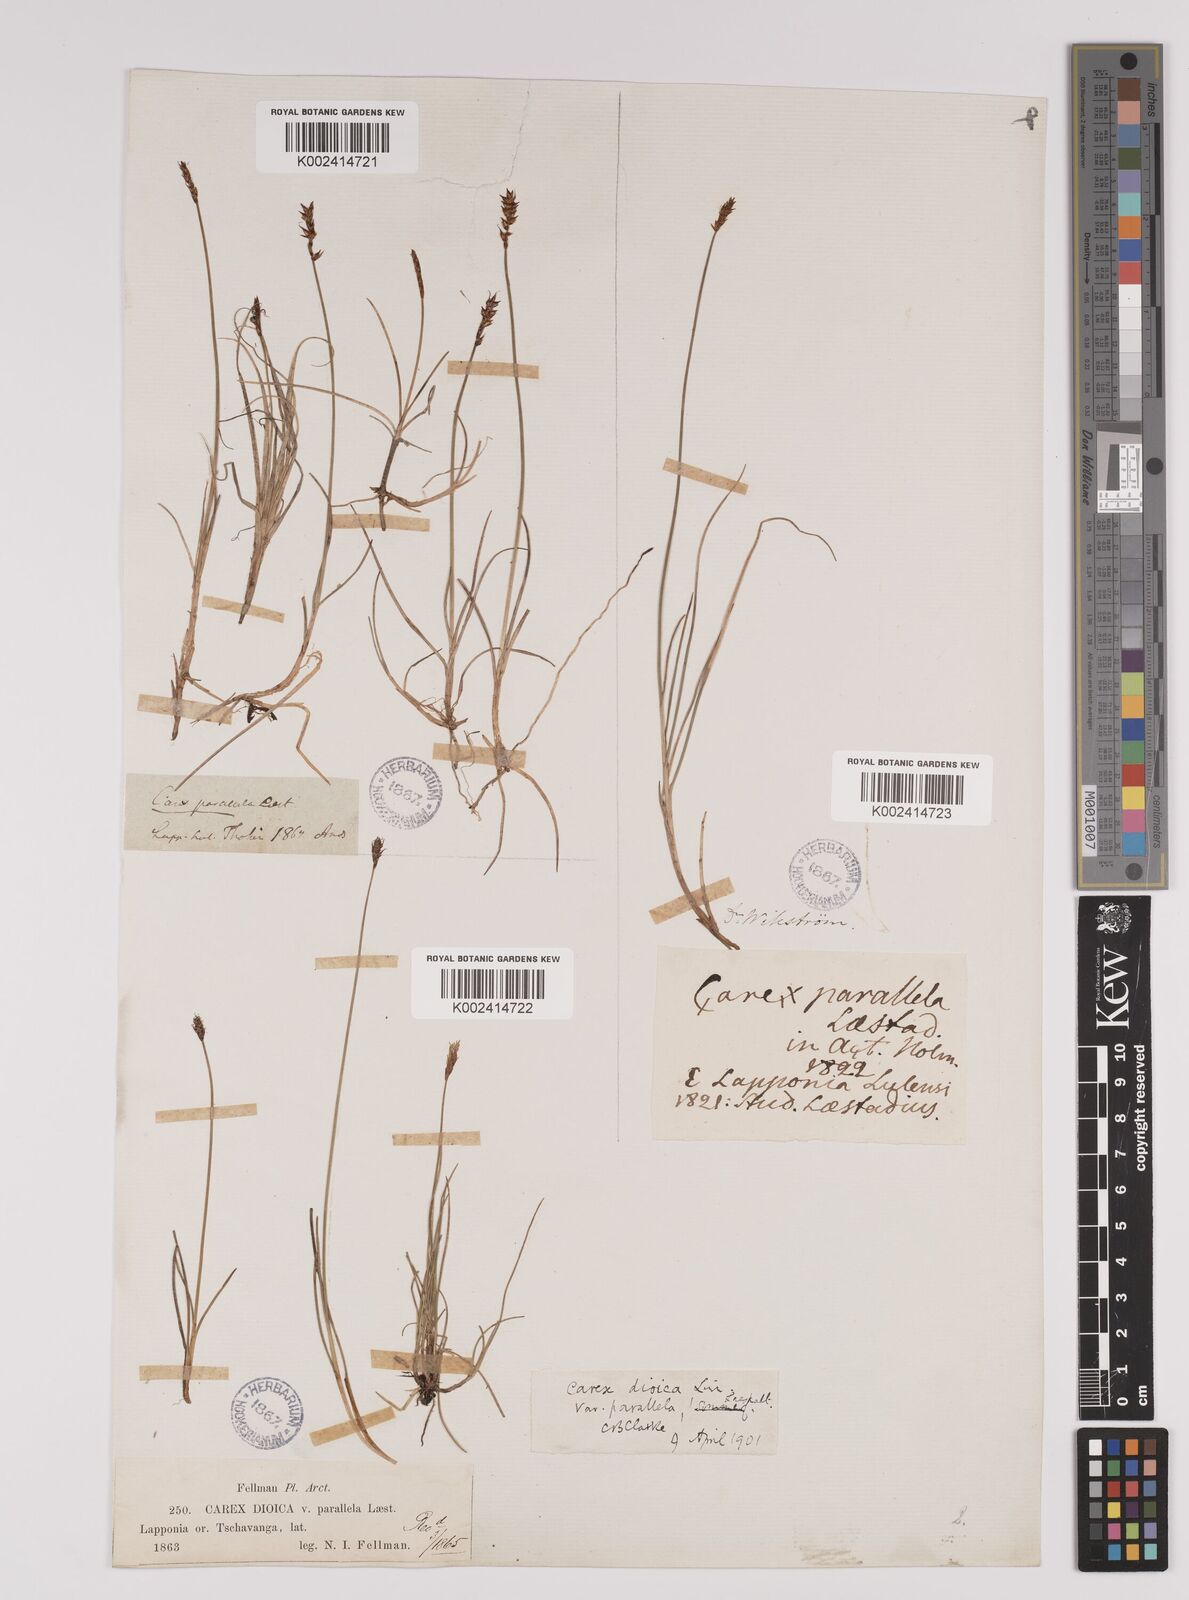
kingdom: Plantae
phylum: Tracheophyta
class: Liliopsida
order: Poales
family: Cyperaceae
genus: Carex
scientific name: Carex parallela
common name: Parallel sedge
